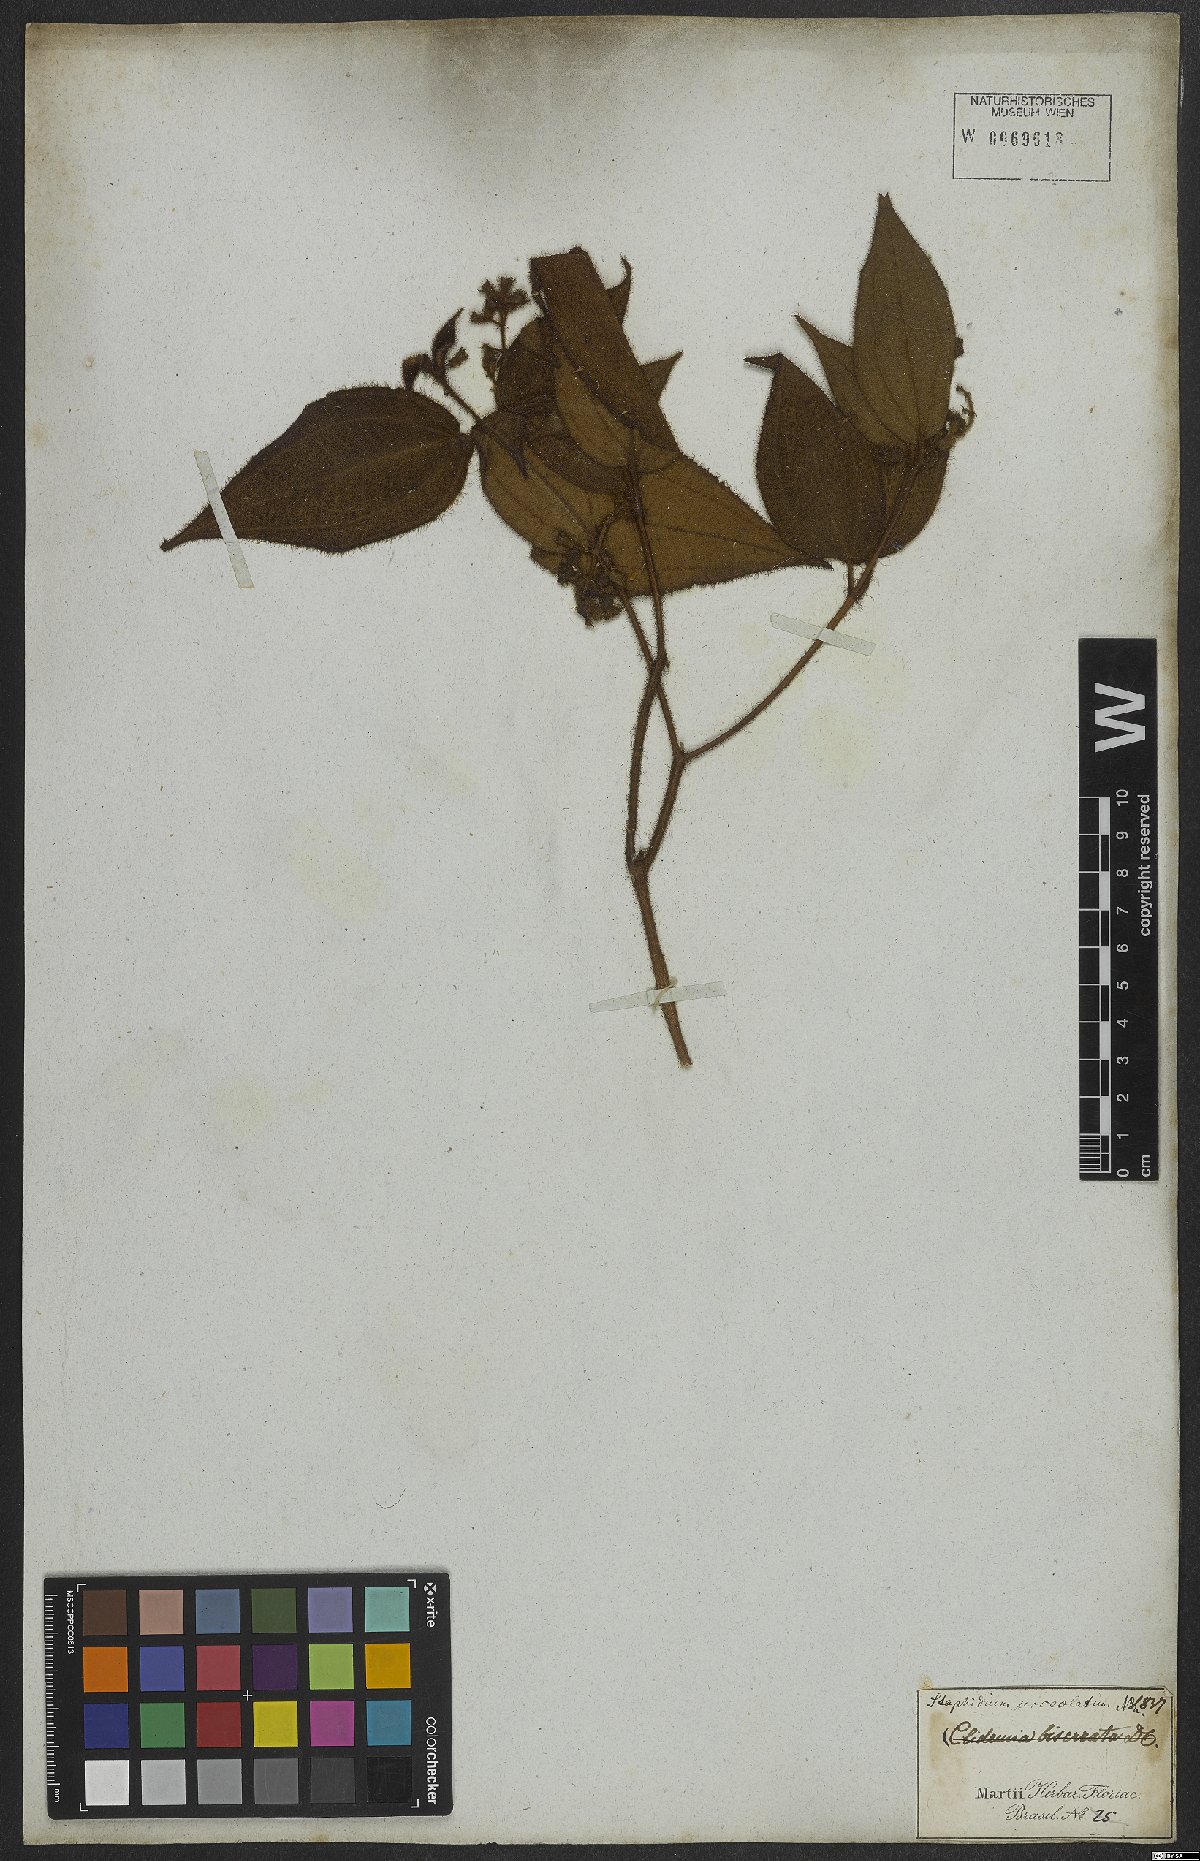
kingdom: Plantae
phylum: Tracheophyta
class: Magnoliopsida
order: Myrtales
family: Melastomataceae
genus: Miconia
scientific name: Miconia dependens
